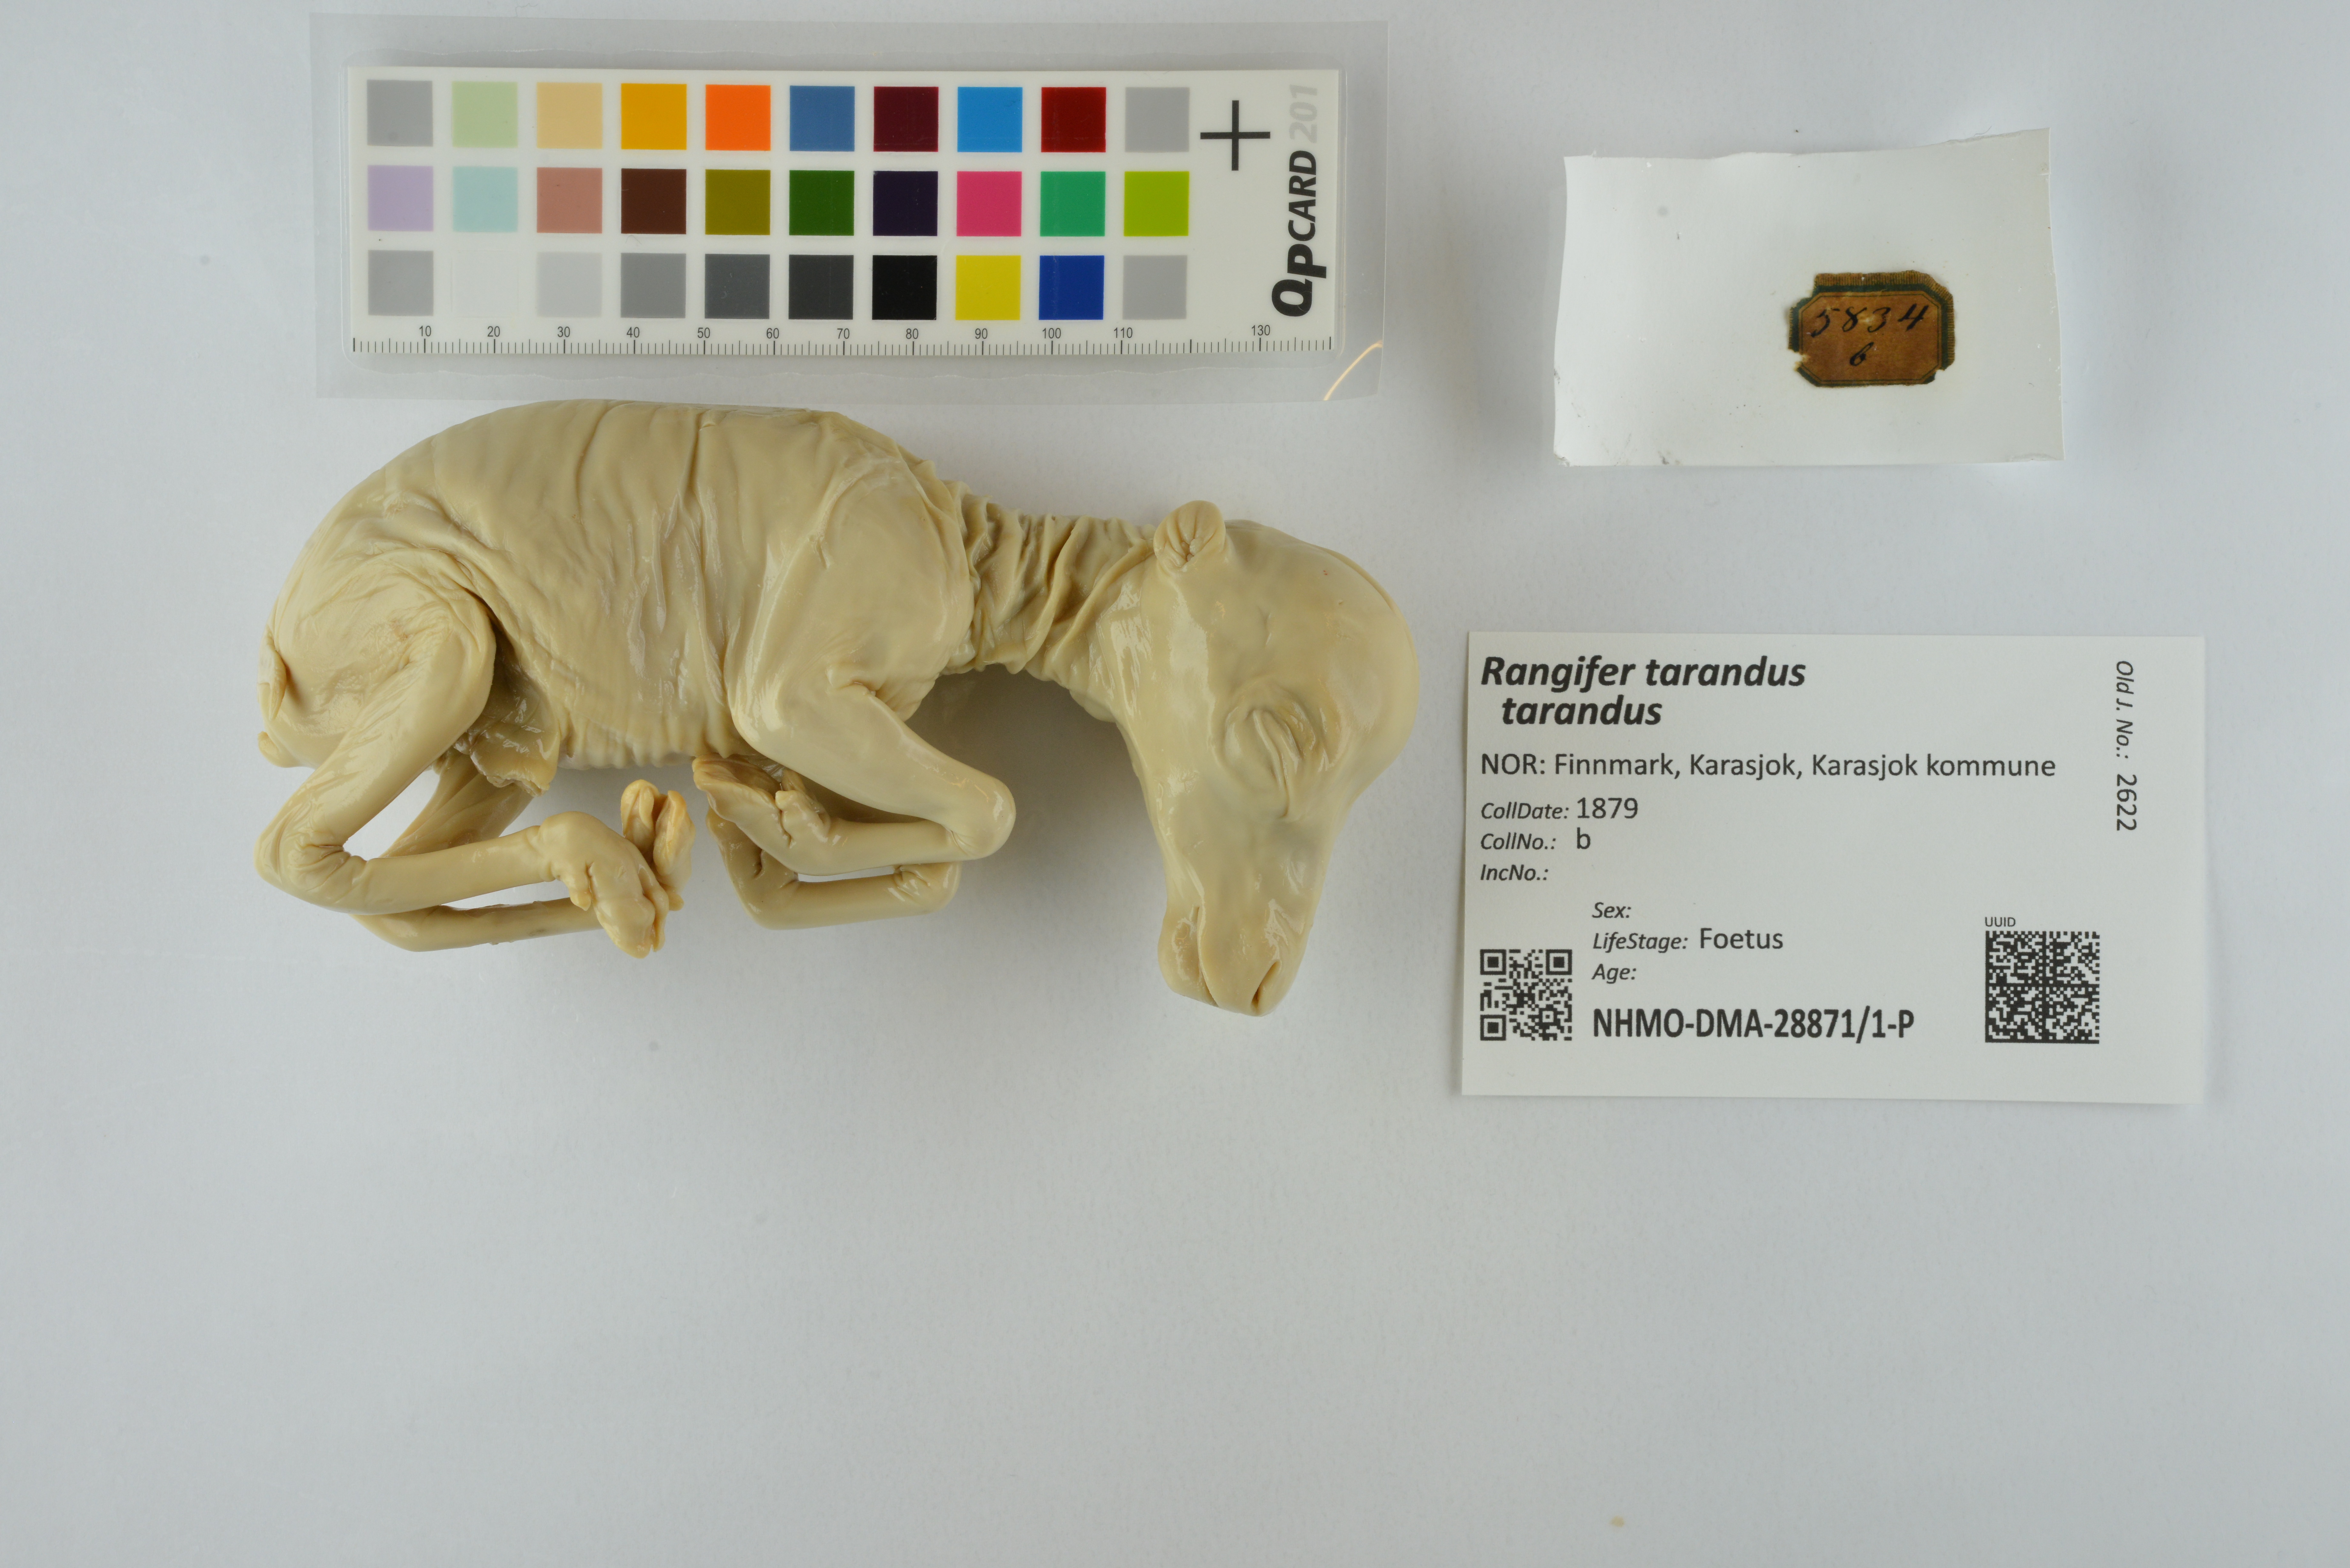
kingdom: Animalia
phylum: Chordata
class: Mammalia
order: Artiodactyla
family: Cervidae
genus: Rangifer
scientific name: Rangifer tarandus
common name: Reindeer
